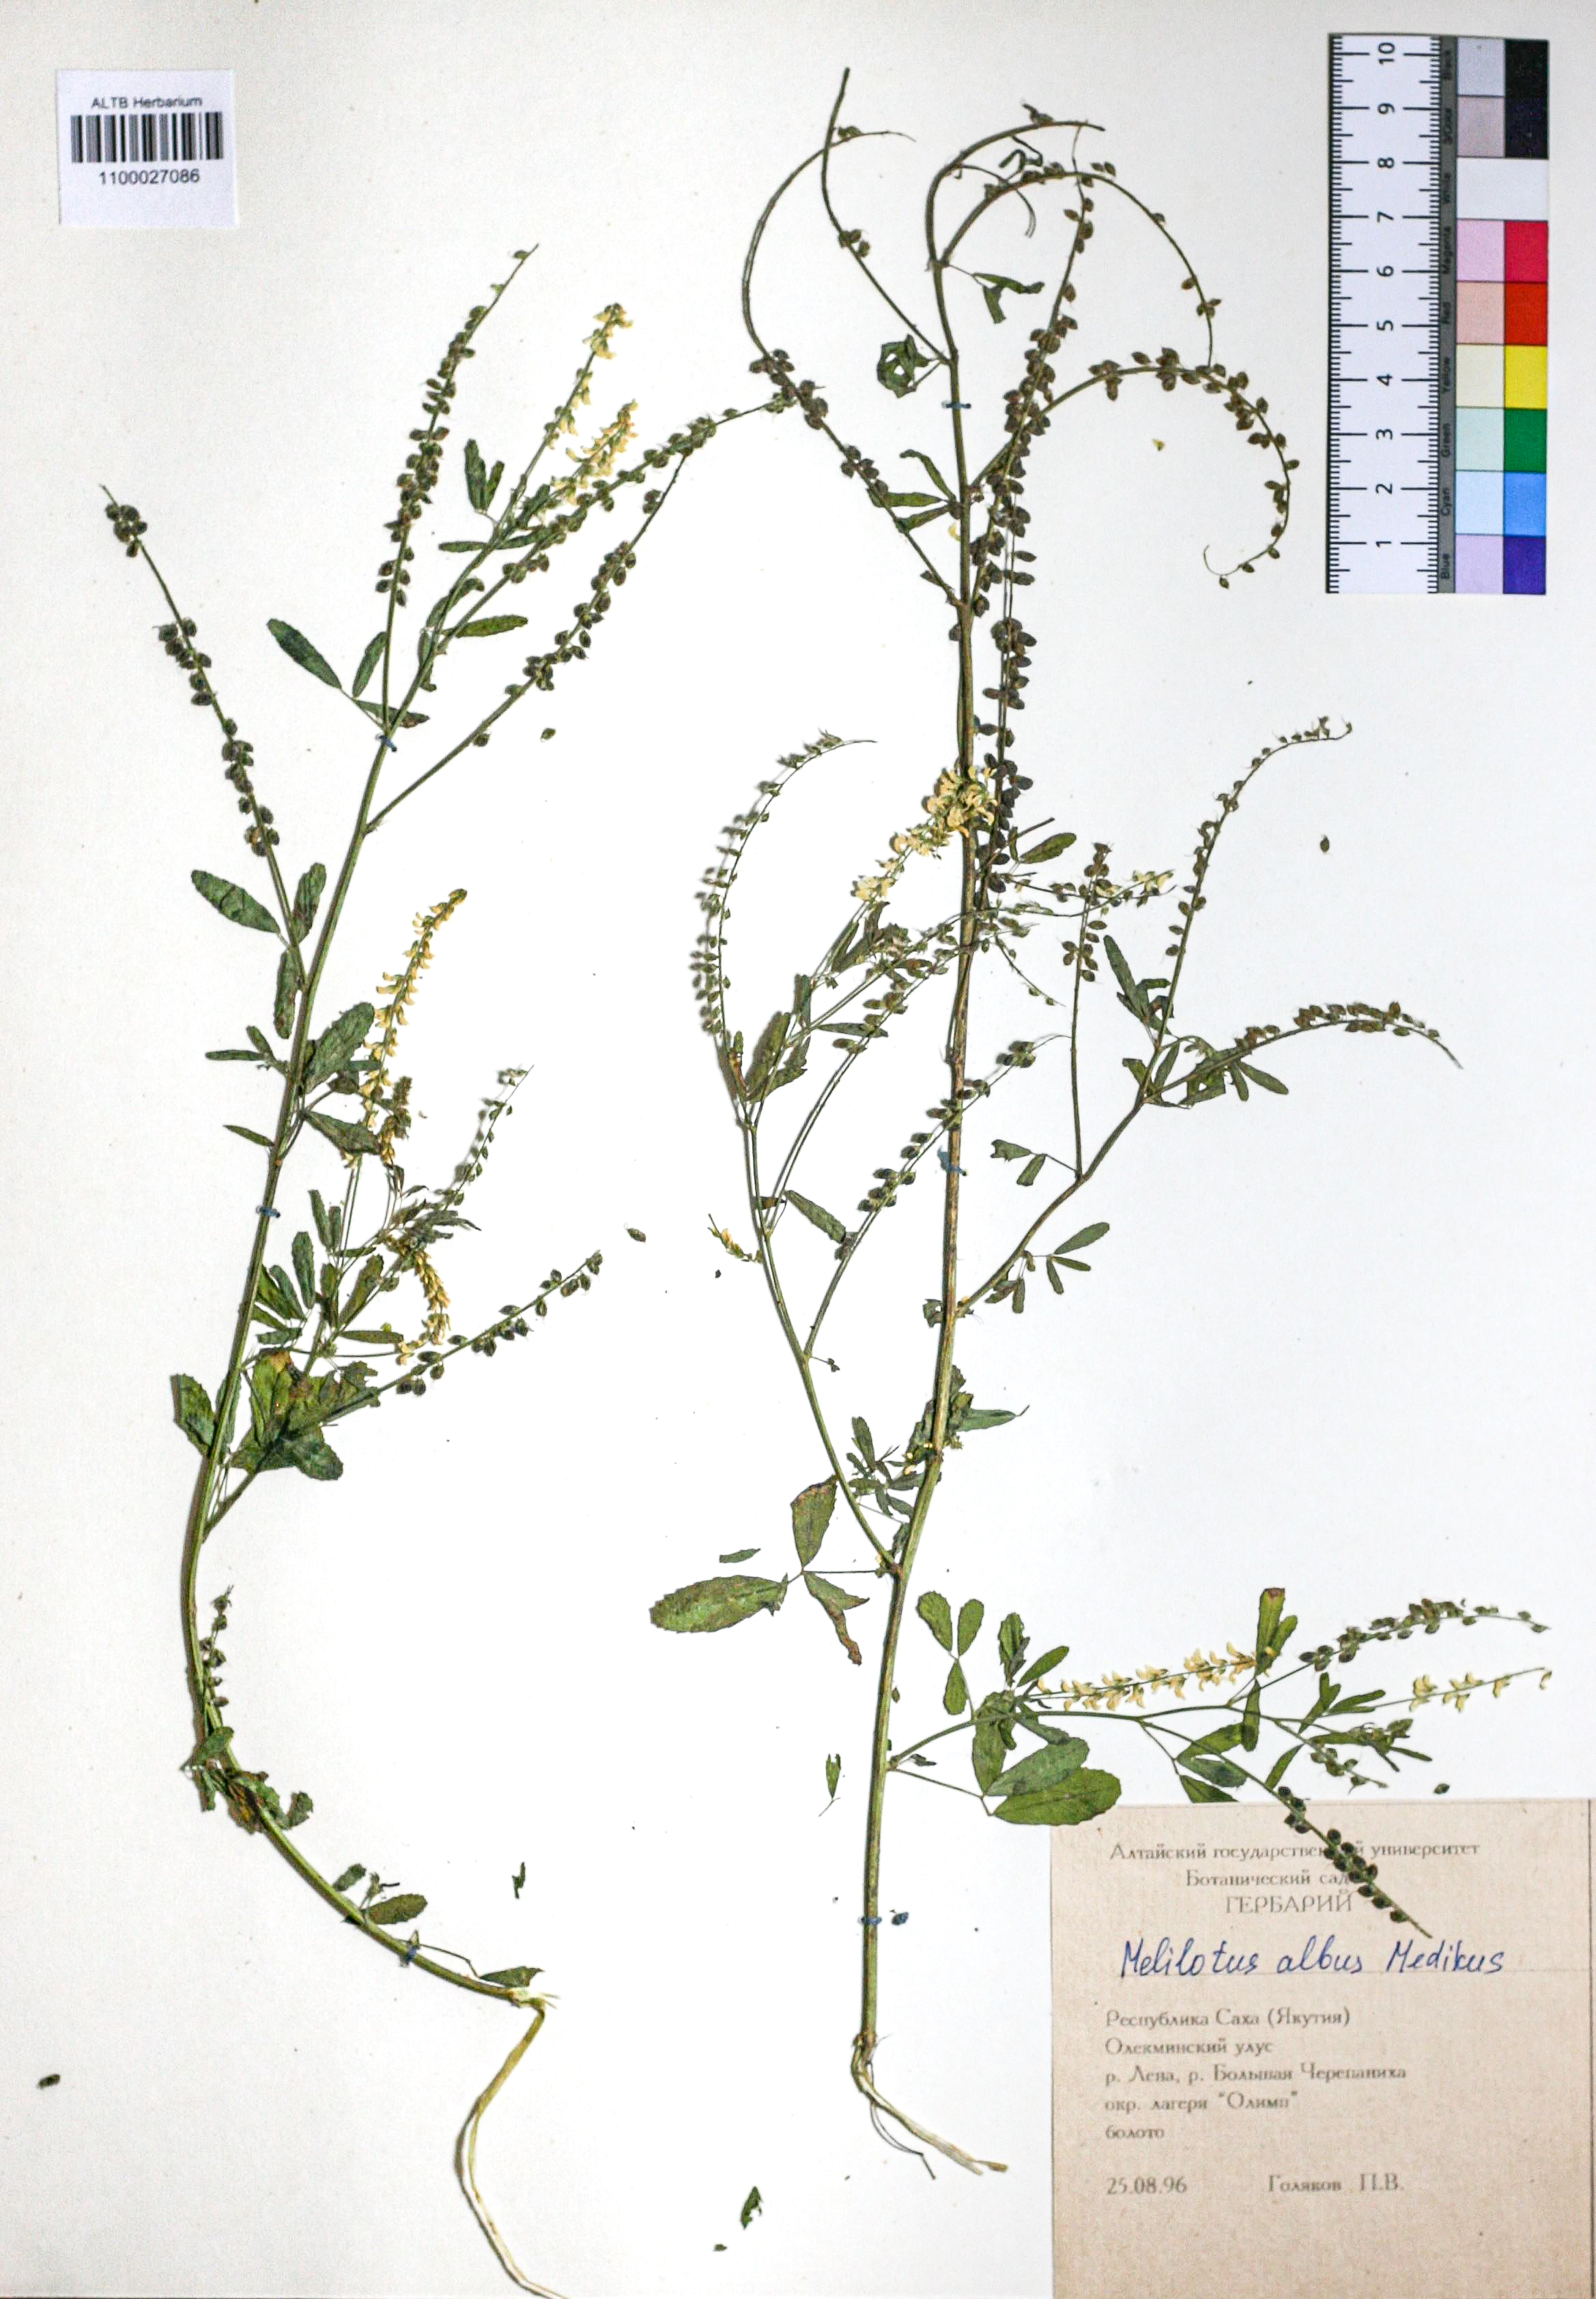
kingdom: Plantae
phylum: Tracheophyta
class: Magnoliopsida
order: Fabales
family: Fabaceae
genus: Melilotus
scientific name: Melilotus albus
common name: White melilot
